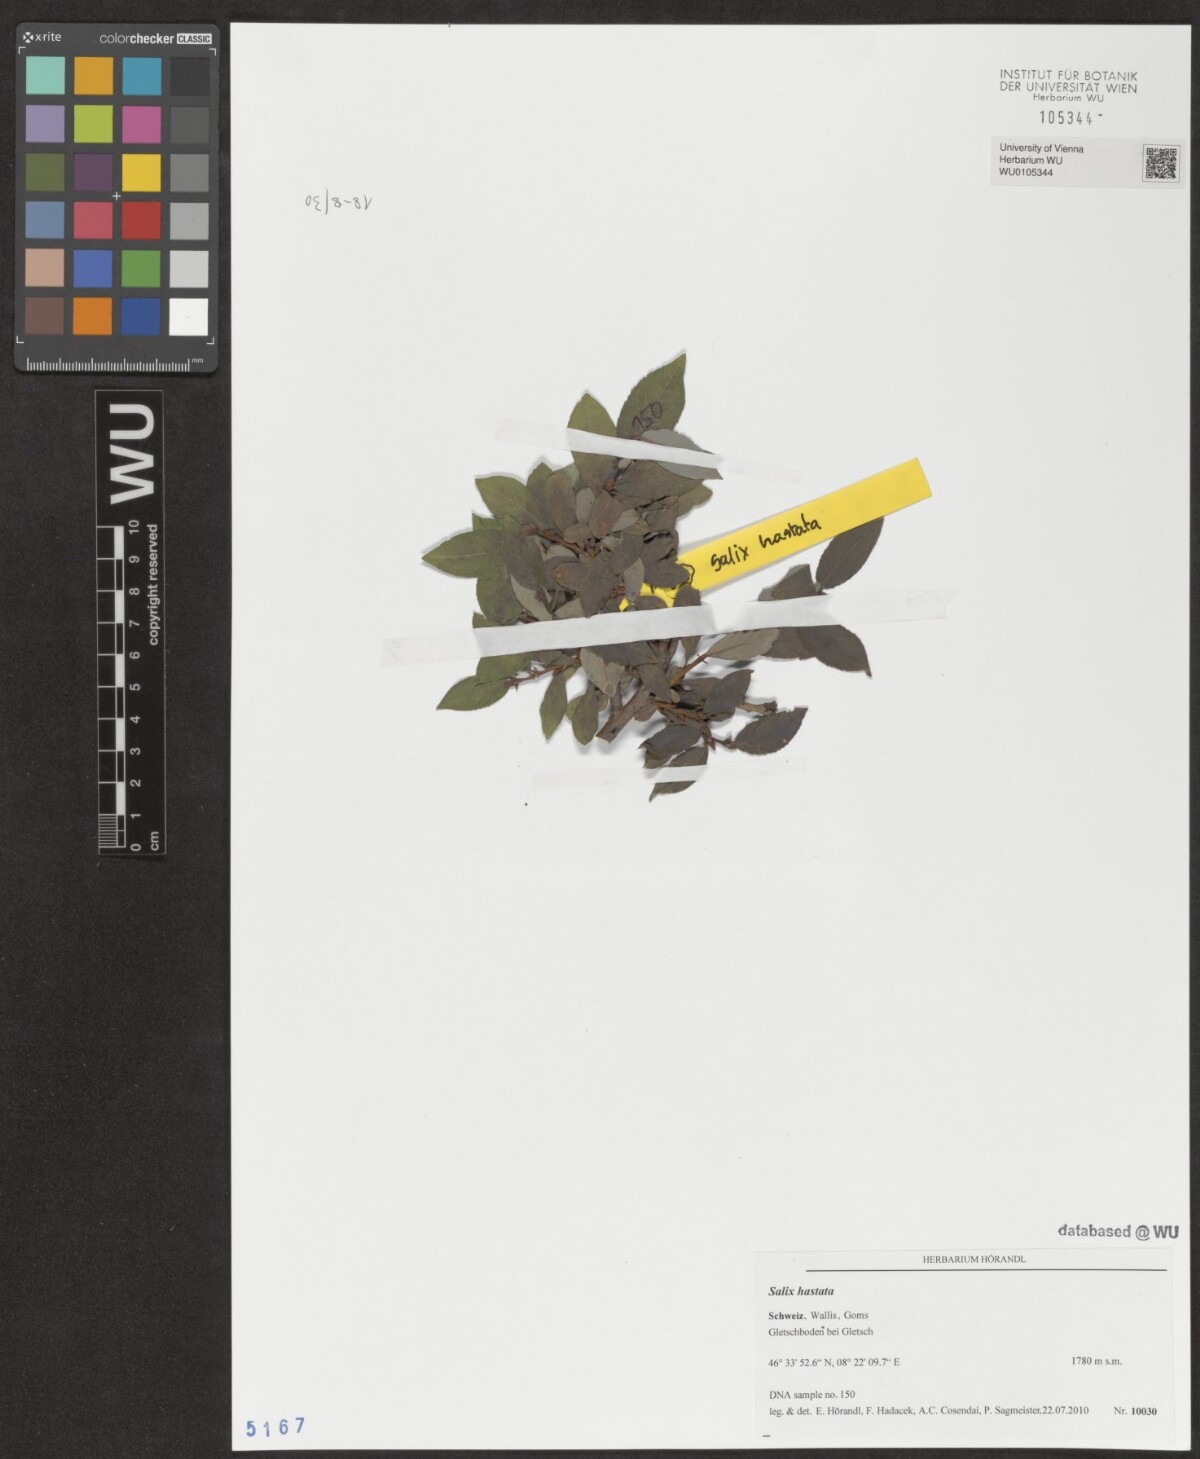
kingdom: Plantae
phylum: Tracheophyta
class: Magnoliopsida
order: Malpighiales
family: Salicaceae
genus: Salix
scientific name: Salix hastata
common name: Halberd willow
